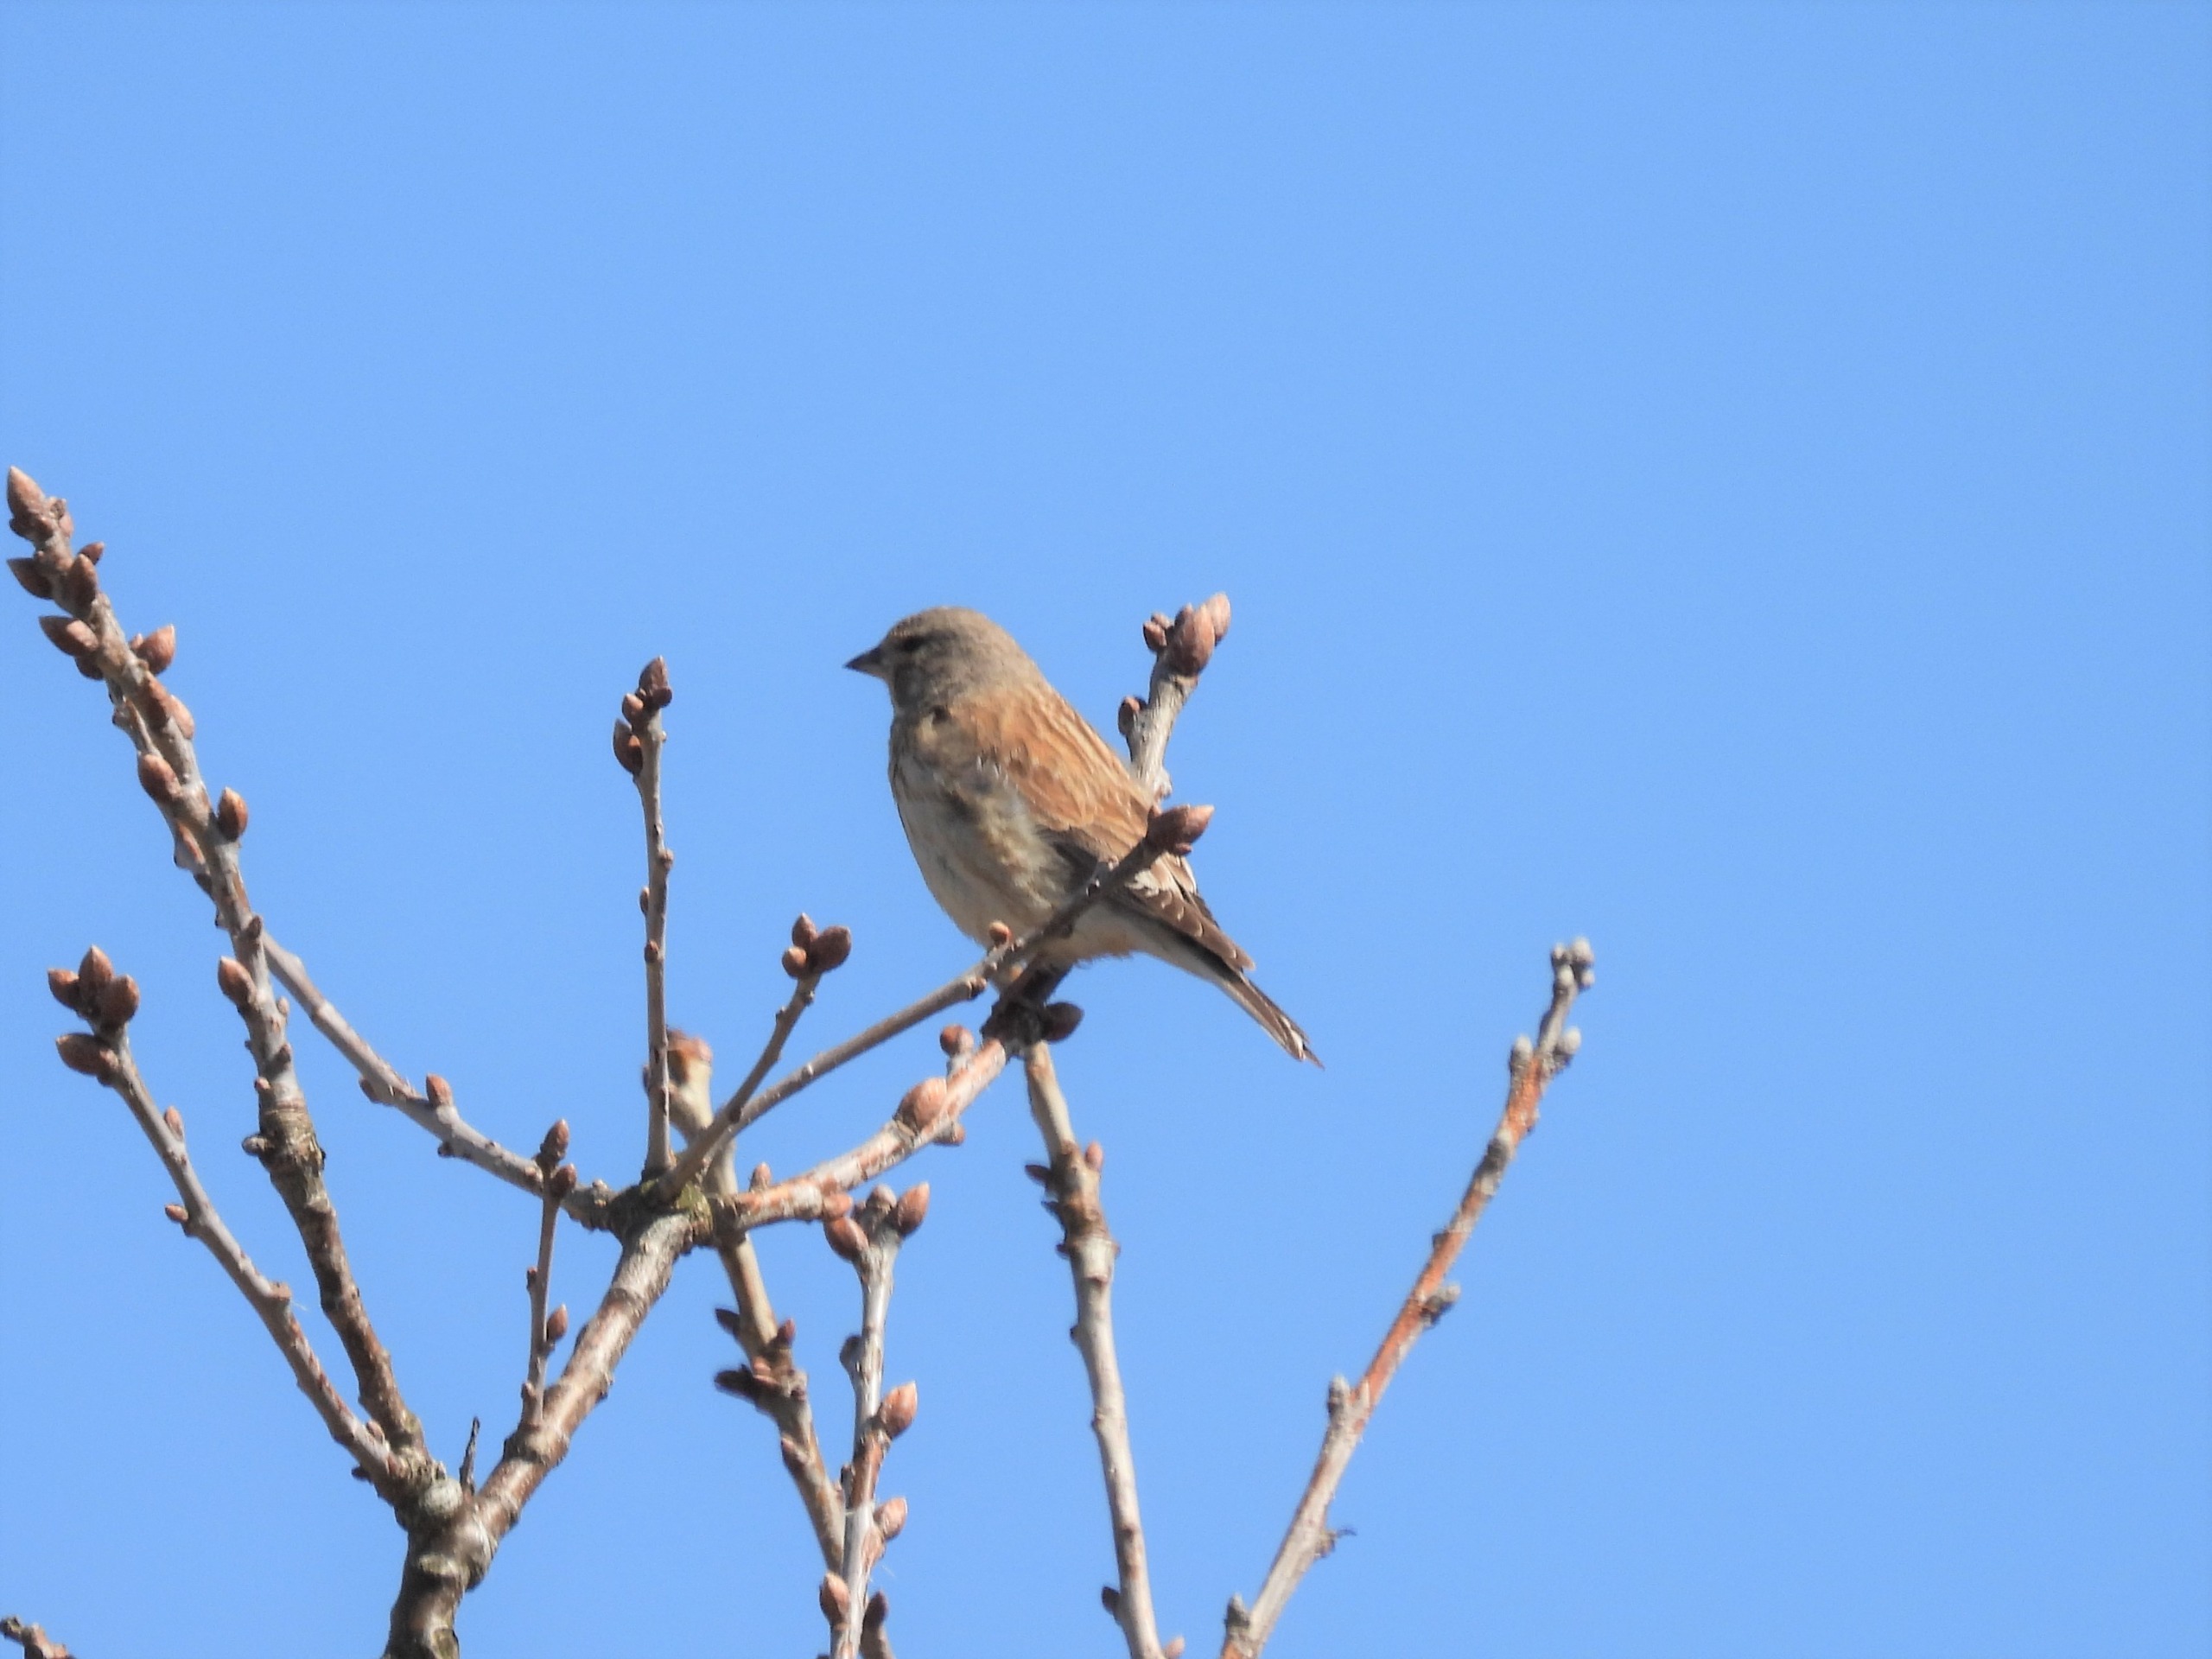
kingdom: Animalia
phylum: Chordata
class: Aves
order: Passeriformes
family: Fringillidae
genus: Linaria
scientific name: Linaria cannabina
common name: Tornirisk
